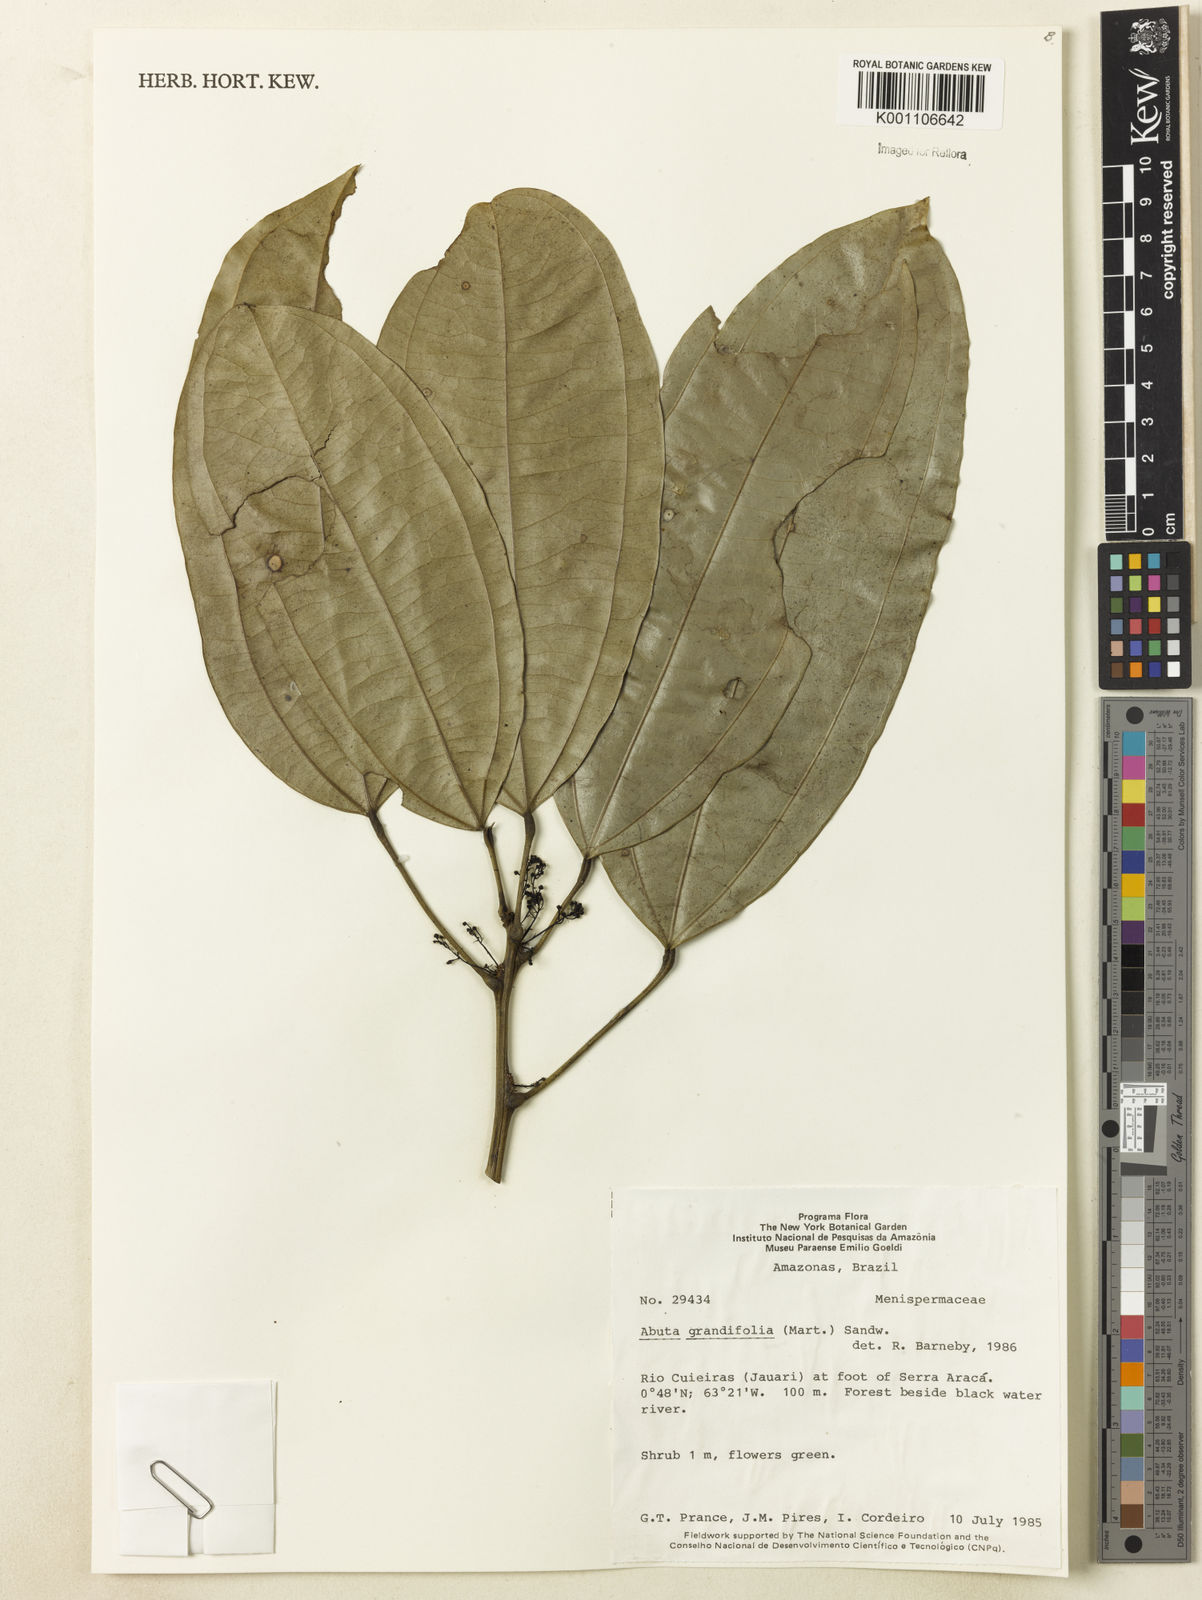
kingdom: Plantae
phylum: Tracheophyta
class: Magnoliopsida
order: Ranunculales
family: Menispermaceae
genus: Abuta
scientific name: Abuta grandifolia
